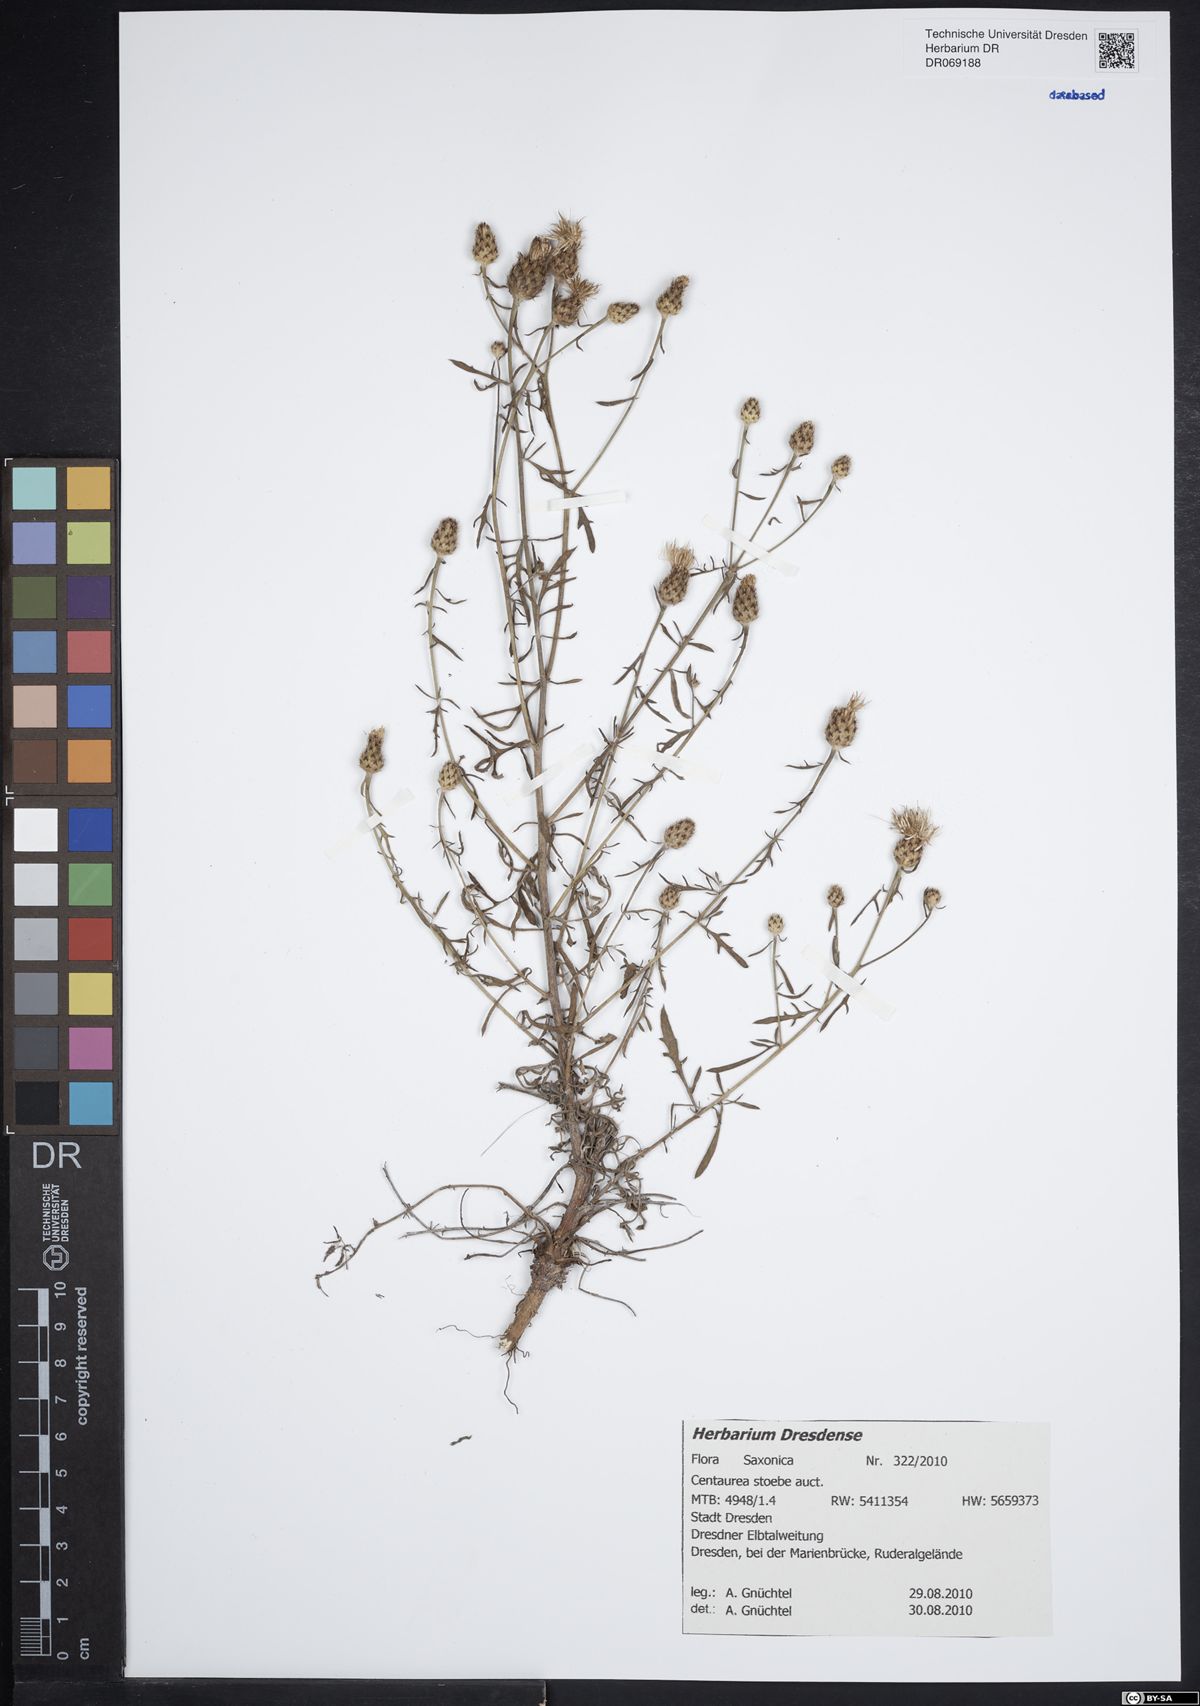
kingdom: Plantae
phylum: Tracheophyta
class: Magnoliopsida
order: Asterales
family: Asteraceae
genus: Centaurea
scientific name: Centaurea stoebe
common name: Spotted knapweed
